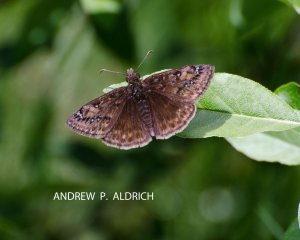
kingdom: Animalia
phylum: Arthropoda
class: Insecta
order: Lepidoptera
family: Hesperiidae
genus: Gesta
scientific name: Gesta
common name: Juvenal's Duskywing
